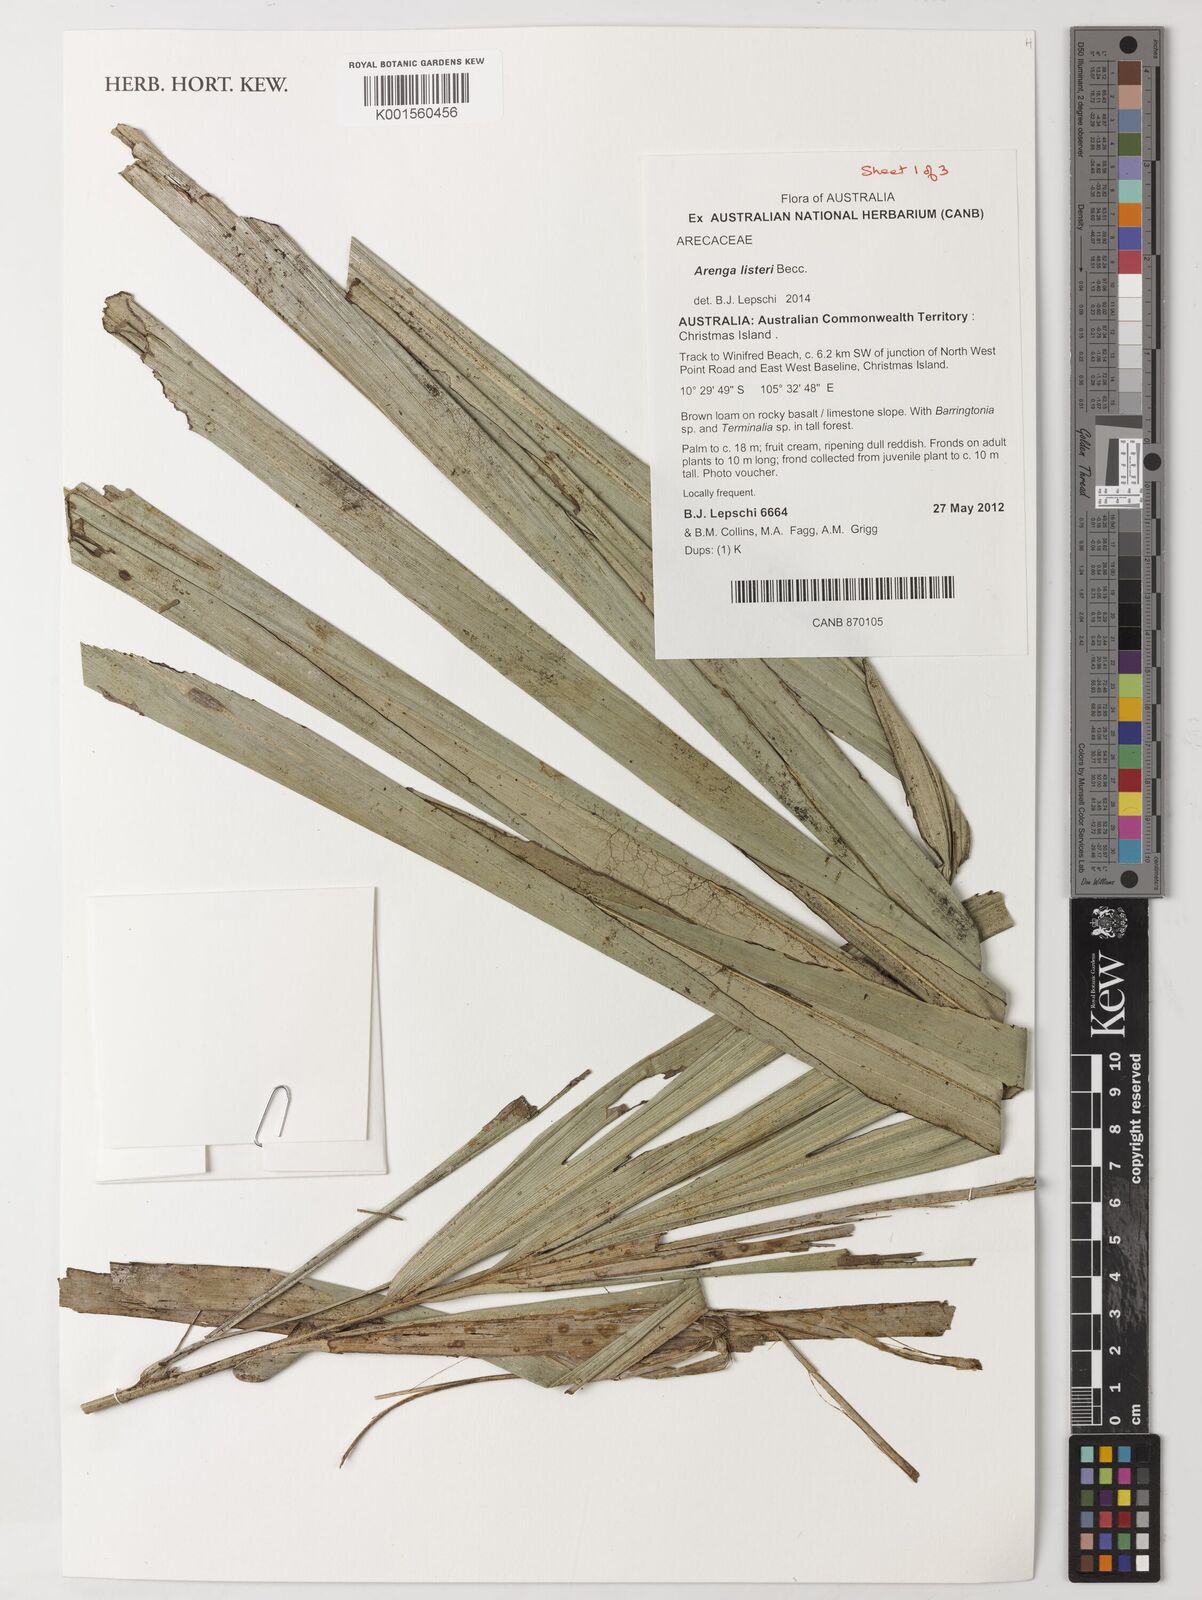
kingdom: Plantae
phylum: Tracheophyta
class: Liliopsida
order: Arecales
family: Arecaceae
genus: Arenga
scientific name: Arenga listeri
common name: Lister's palm
